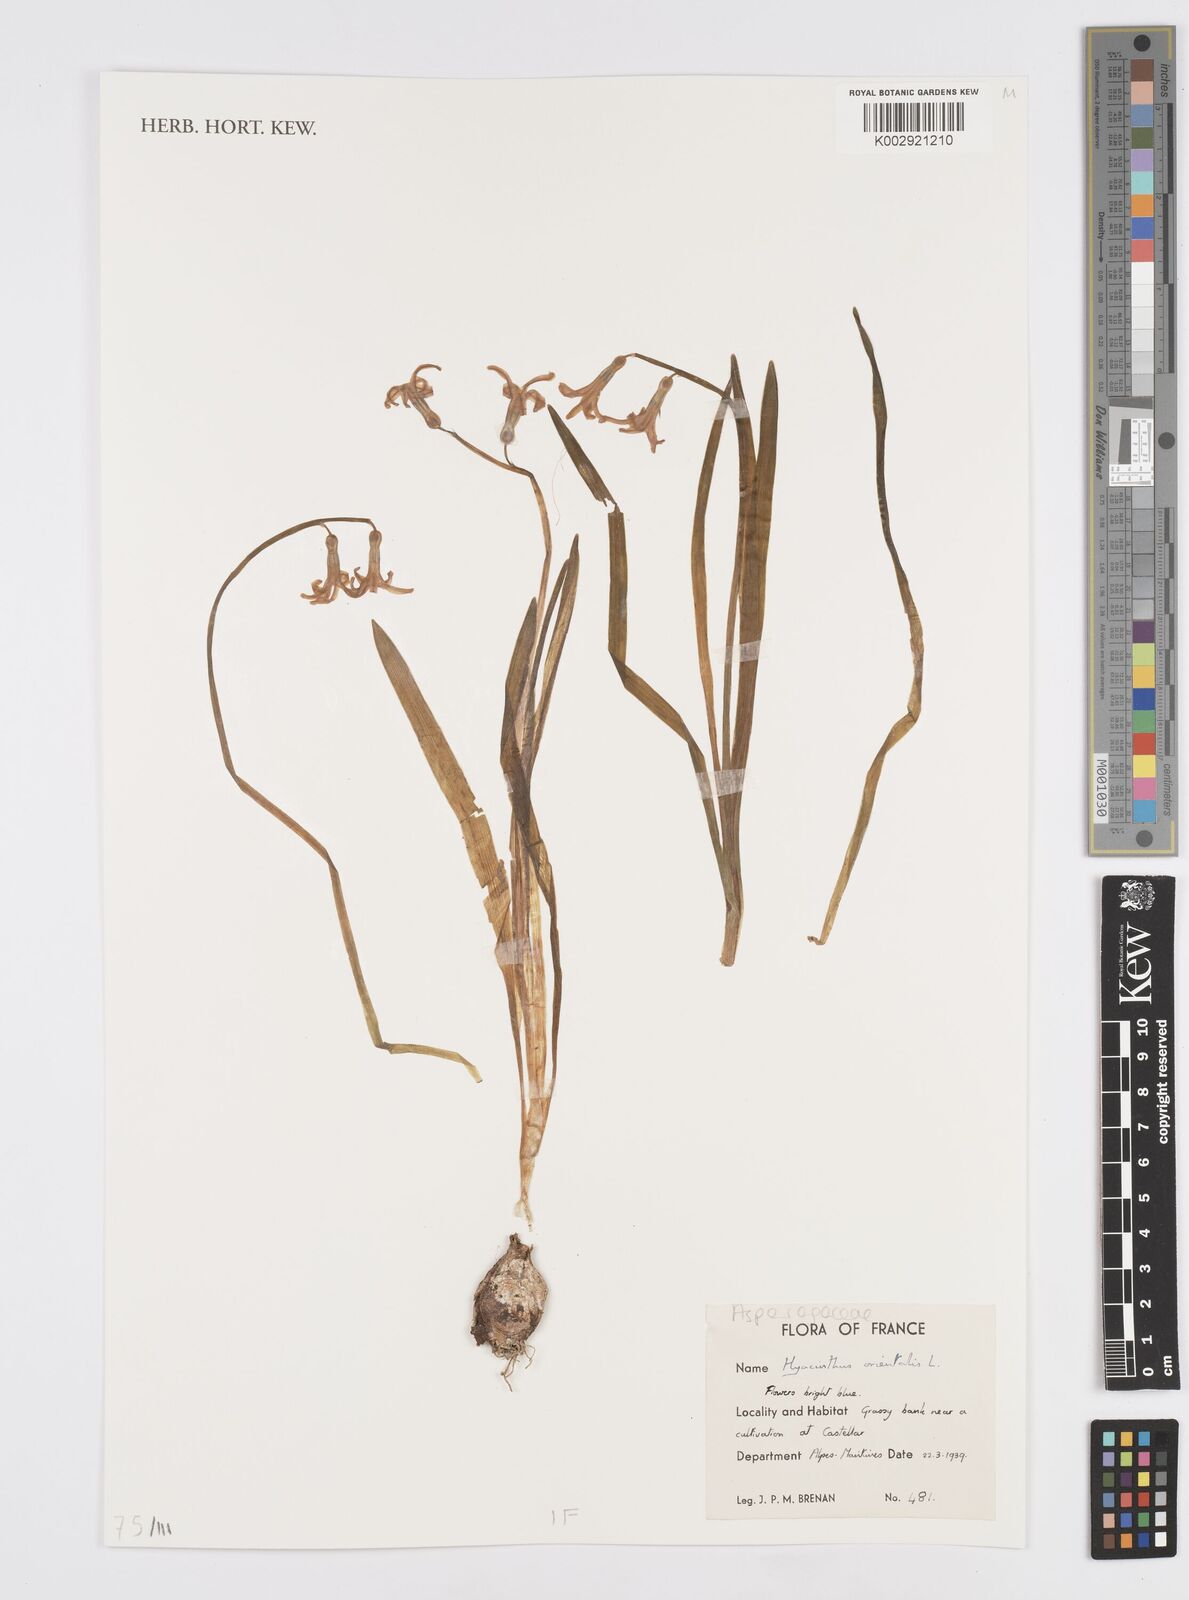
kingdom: Plantae
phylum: Tracheophyta
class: Liliopsida
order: Asparagales
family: Asparagaceae
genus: Hyacinthus
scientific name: Hyacinthus orientalis
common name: Hyacinth
